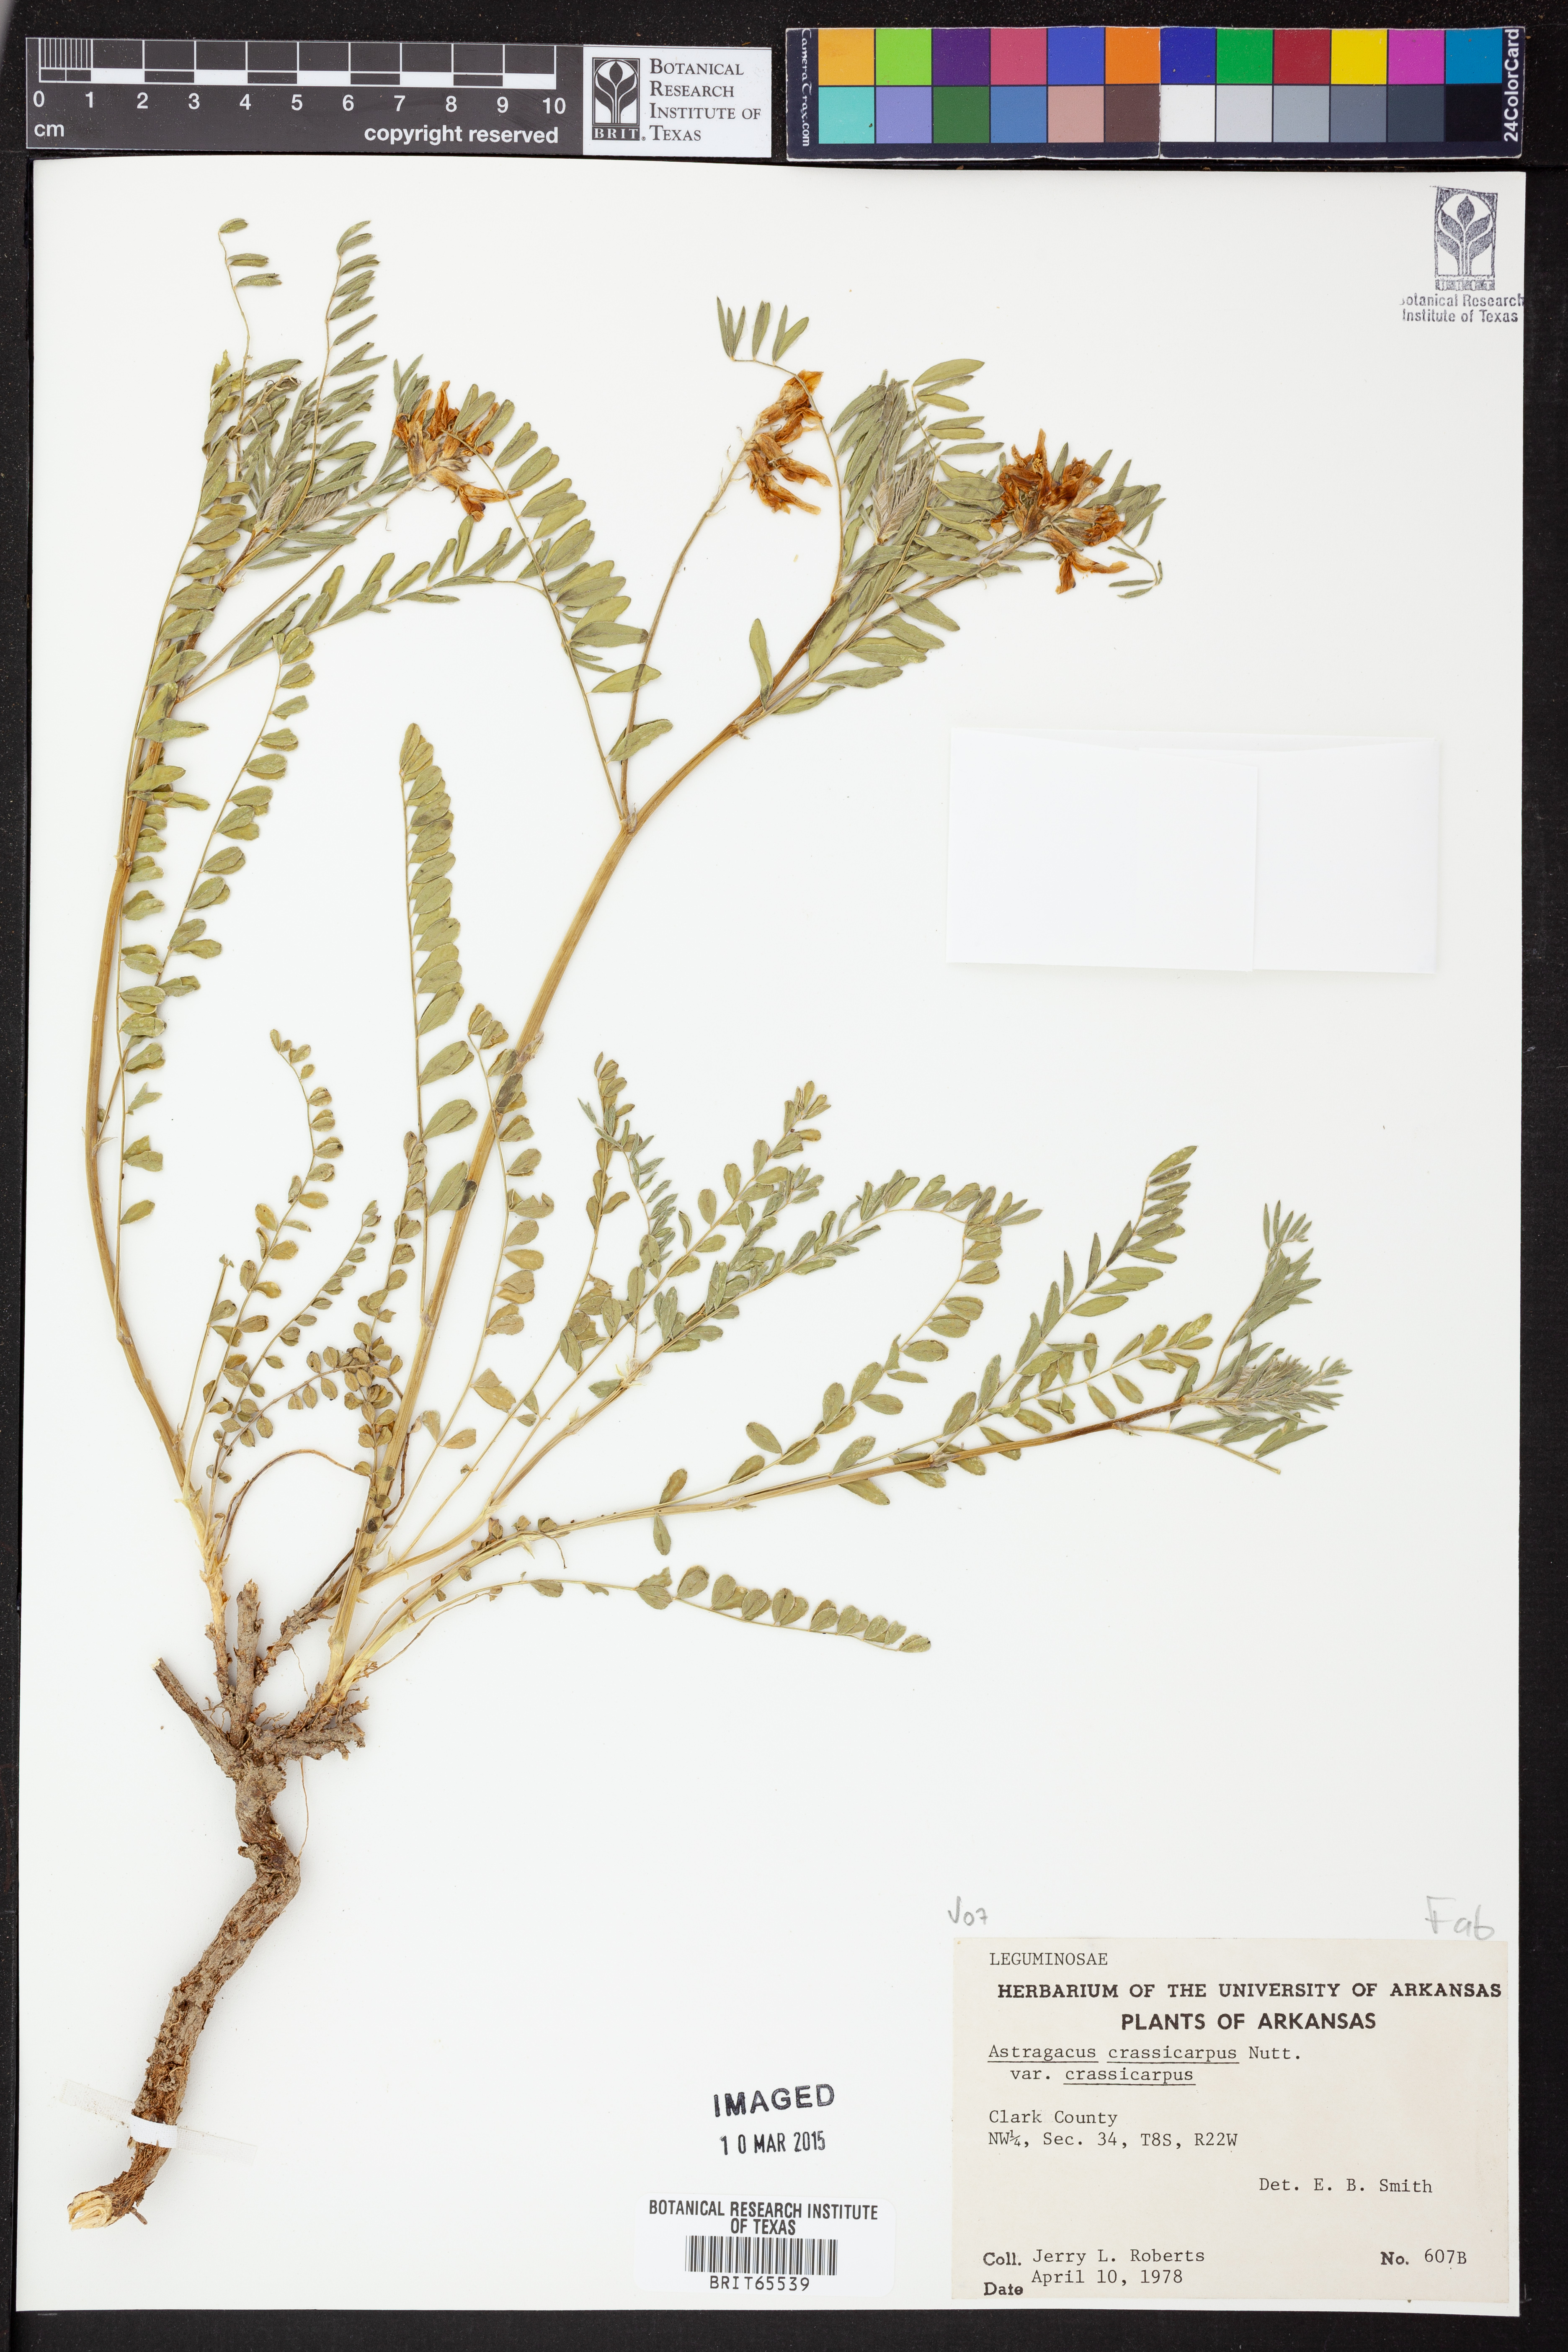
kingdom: Plantae
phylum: Tracheophyta
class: Magnoliopsida
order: Fabales
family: Fabaceae
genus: Astragalus
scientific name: Astragalus crassicarpus
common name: Ground-plum milk-vetch
